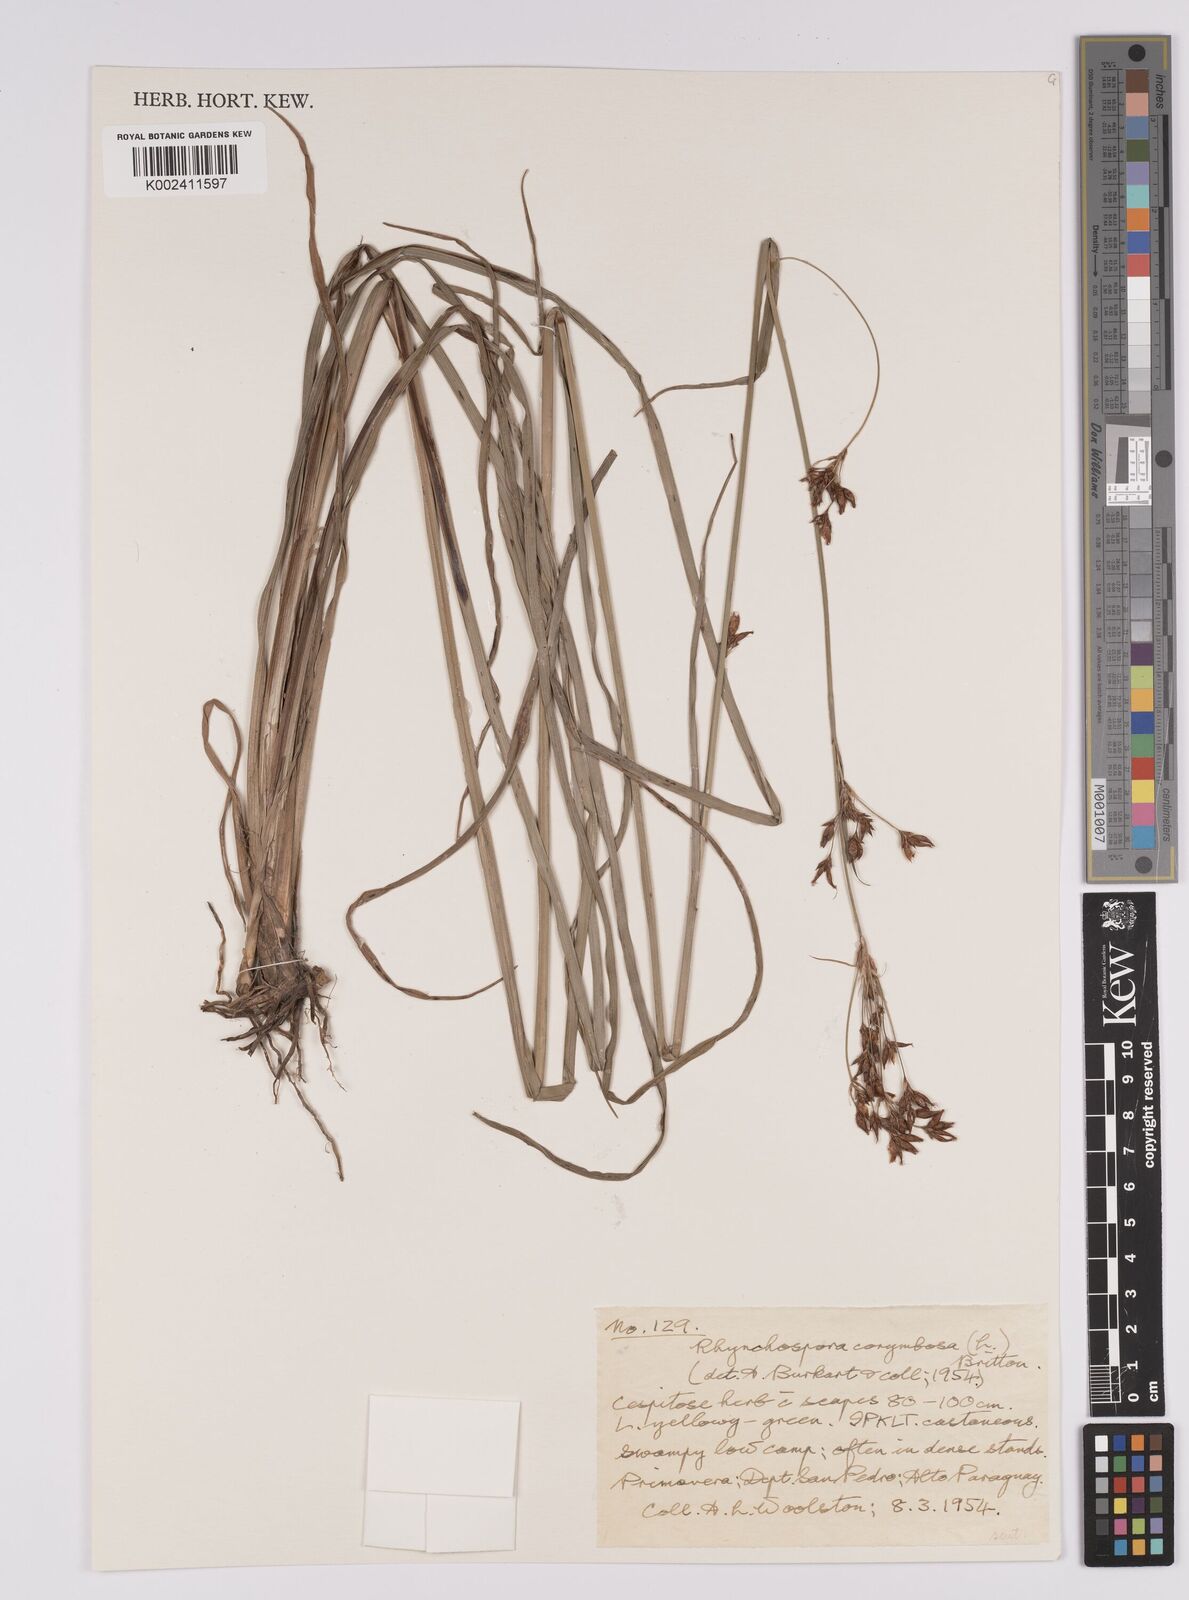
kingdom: Plantae
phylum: Tracheophyta
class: Liliopsida
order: Poales
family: Cyperaceae
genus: Rhynchospora
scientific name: Rhynchospora corymbosa
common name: Golden beak sedge
